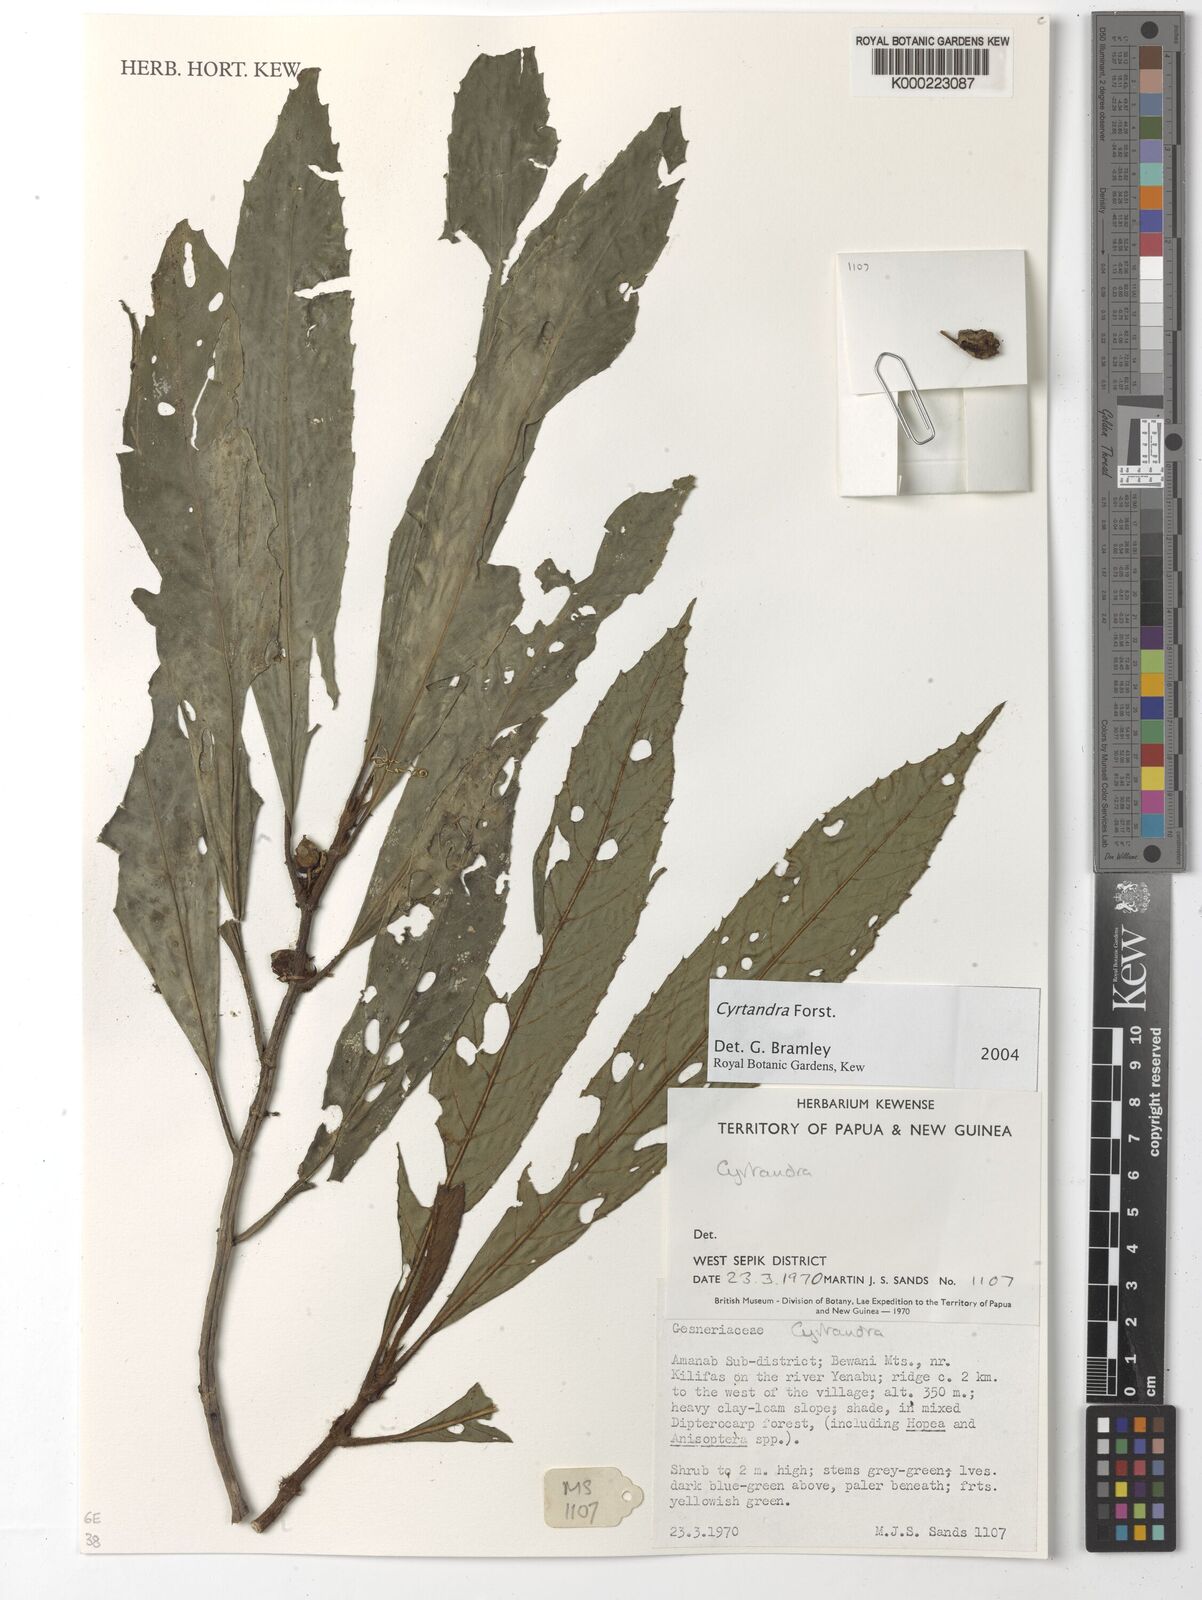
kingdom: Plantae
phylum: Tracheophyta
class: Magnoliopsida
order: Lamiales
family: Gesneriaceae
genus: Cyrtandra
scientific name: Cyrtandra
